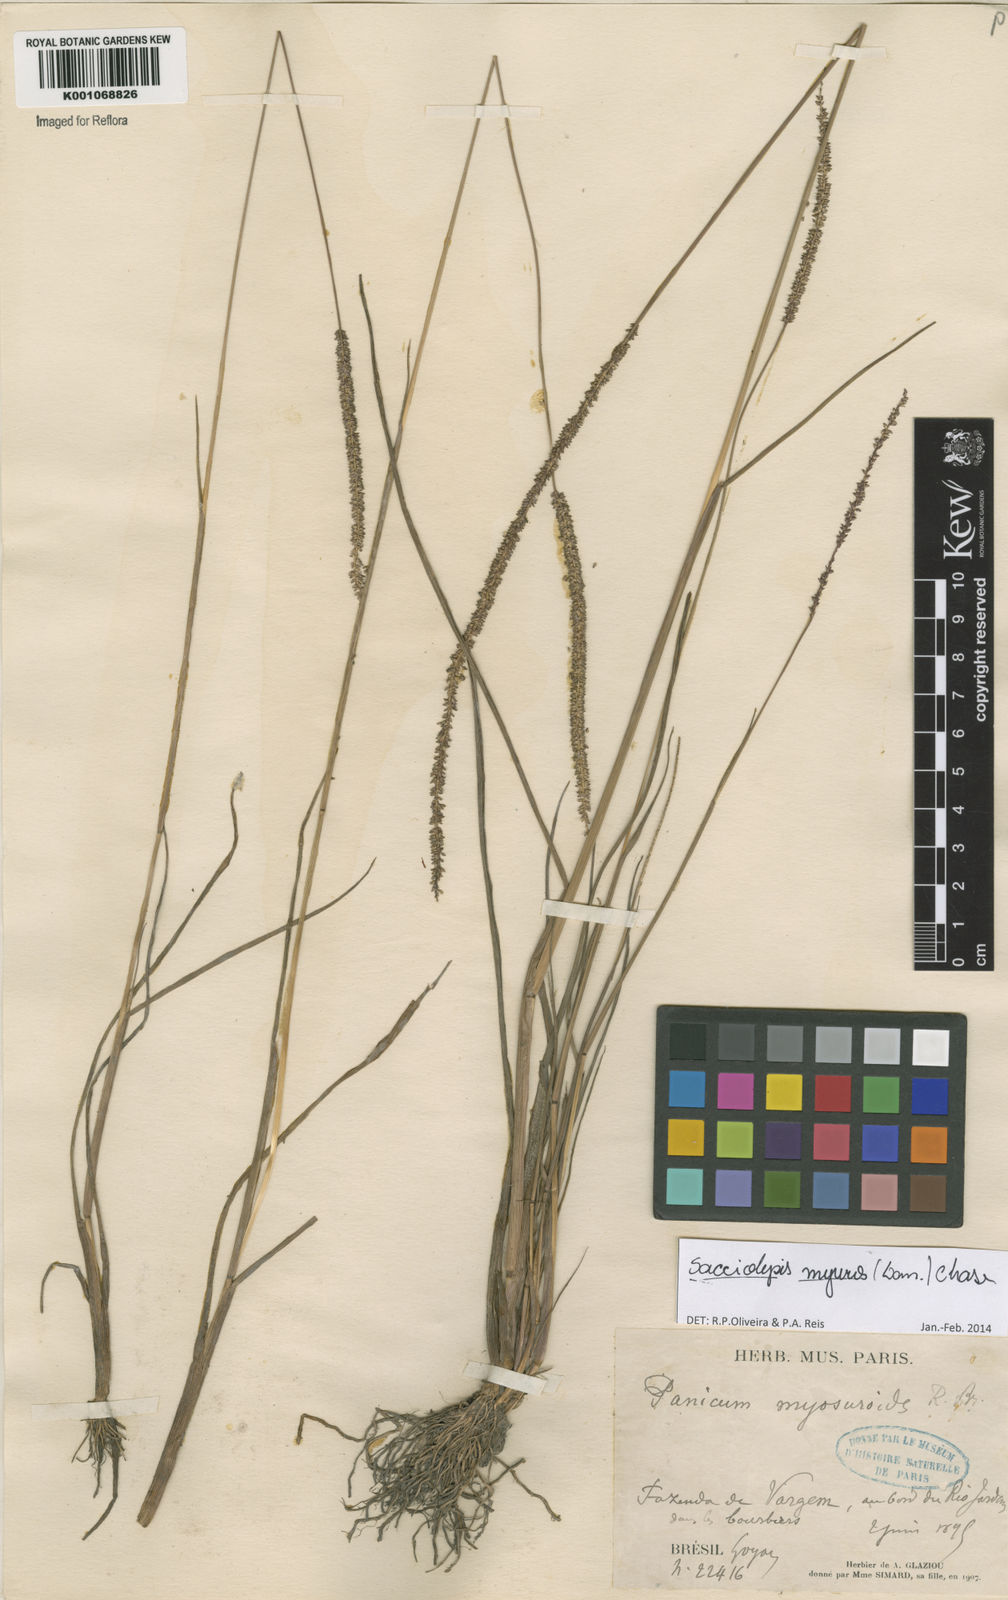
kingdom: Plantae
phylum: Tracheophyta
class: Liliopsida
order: Poales
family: Poaceae
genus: Sacciolepis
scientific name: Sacciolepis myuros
